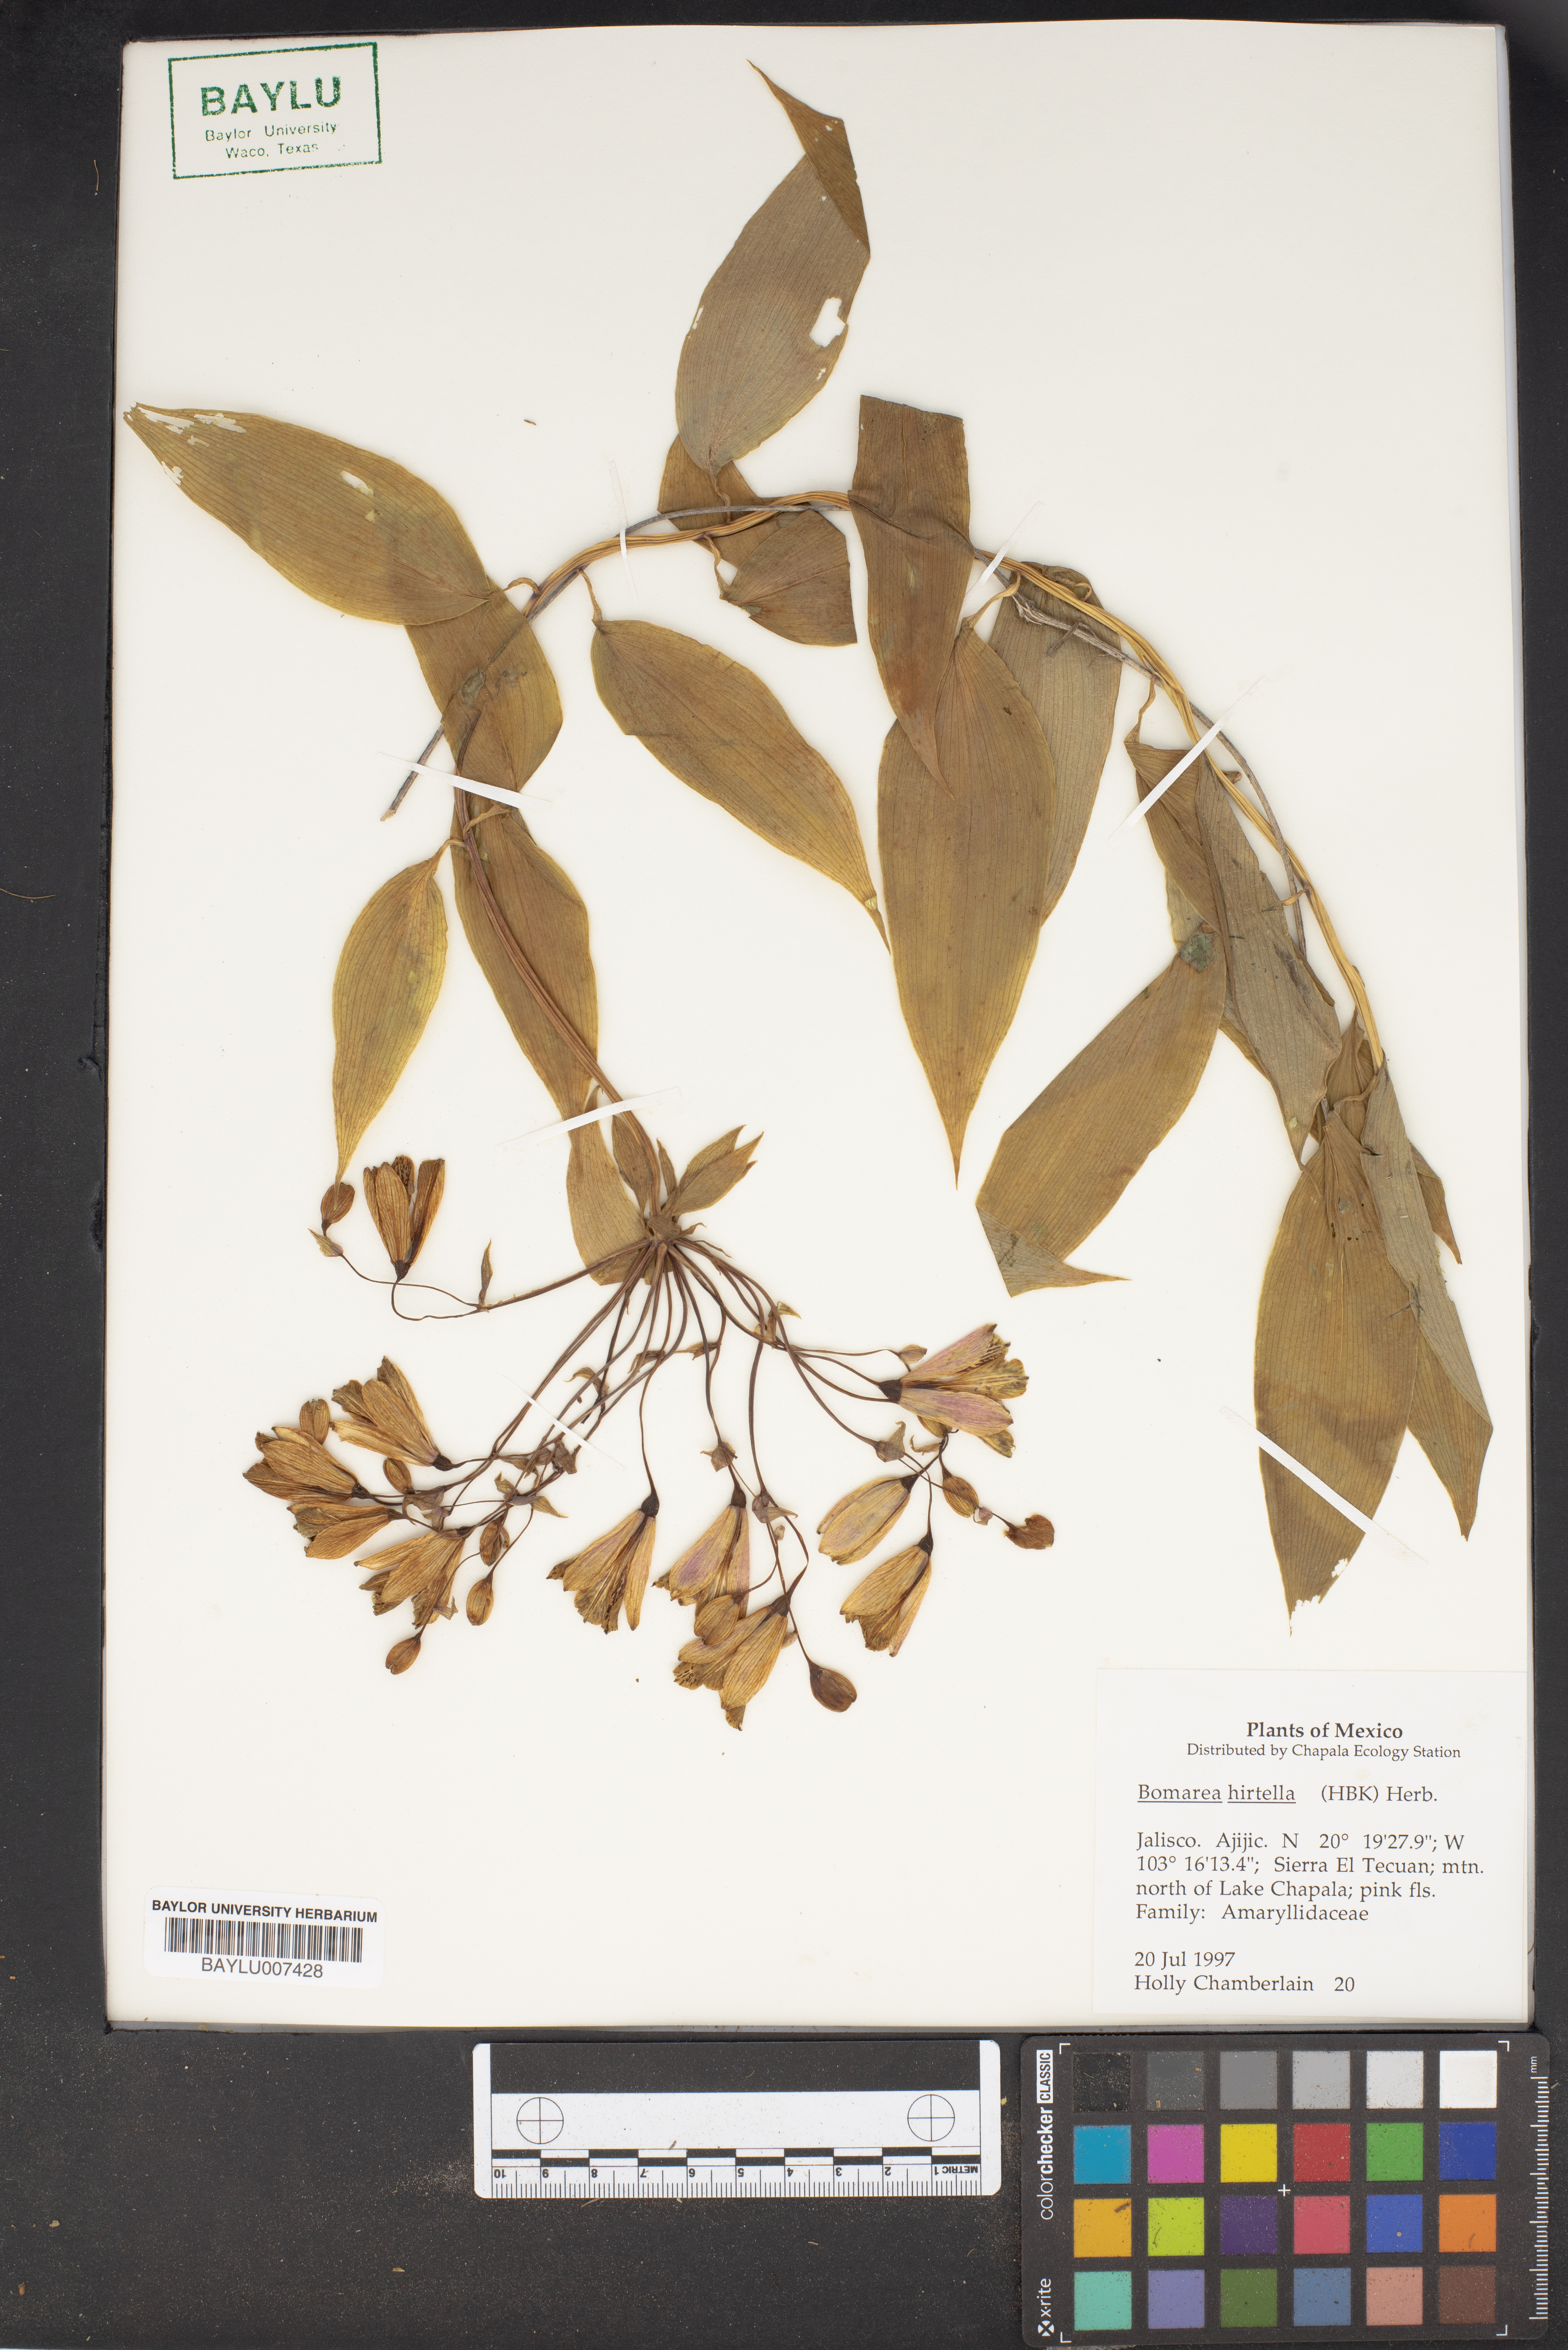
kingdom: Plantae
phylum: Tracheophyta
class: Liliopsida
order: Liliales
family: Alstroemeriaceae
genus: Bomarea
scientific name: Bomarea
